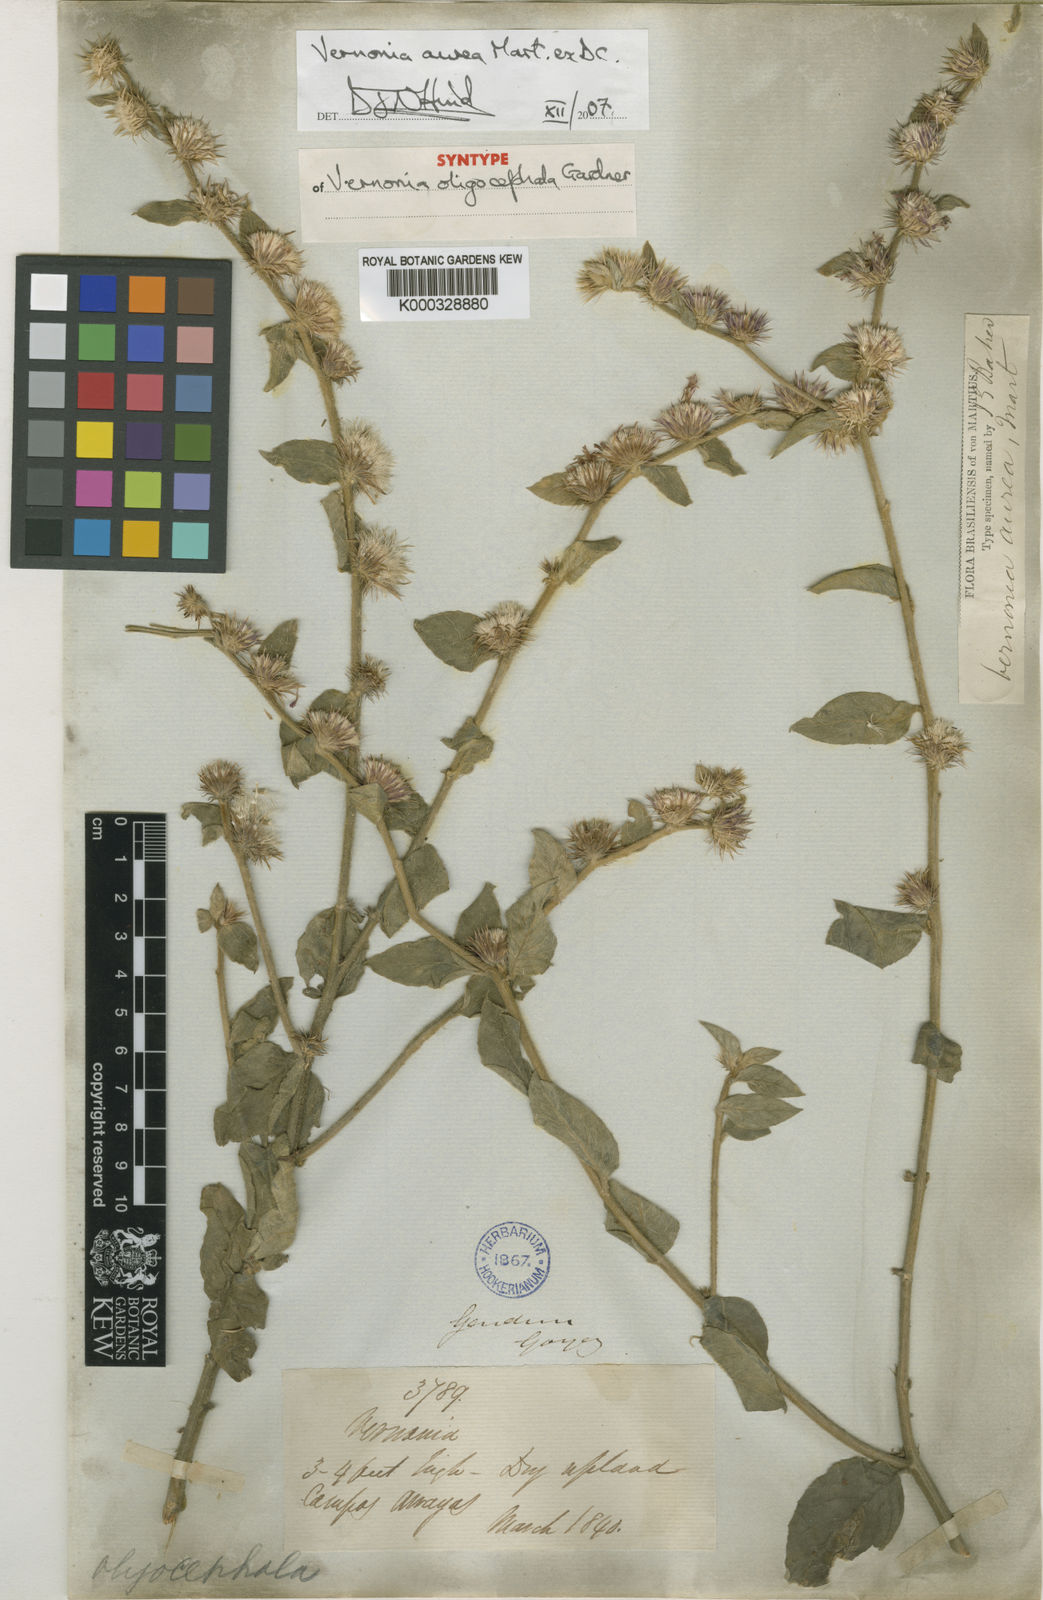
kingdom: Plantae
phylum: Tracheophyta
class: Magnoliopsida
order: Asterales
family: Asteraceae
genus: Lepidaploa
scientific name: Lepidaploa aurea
